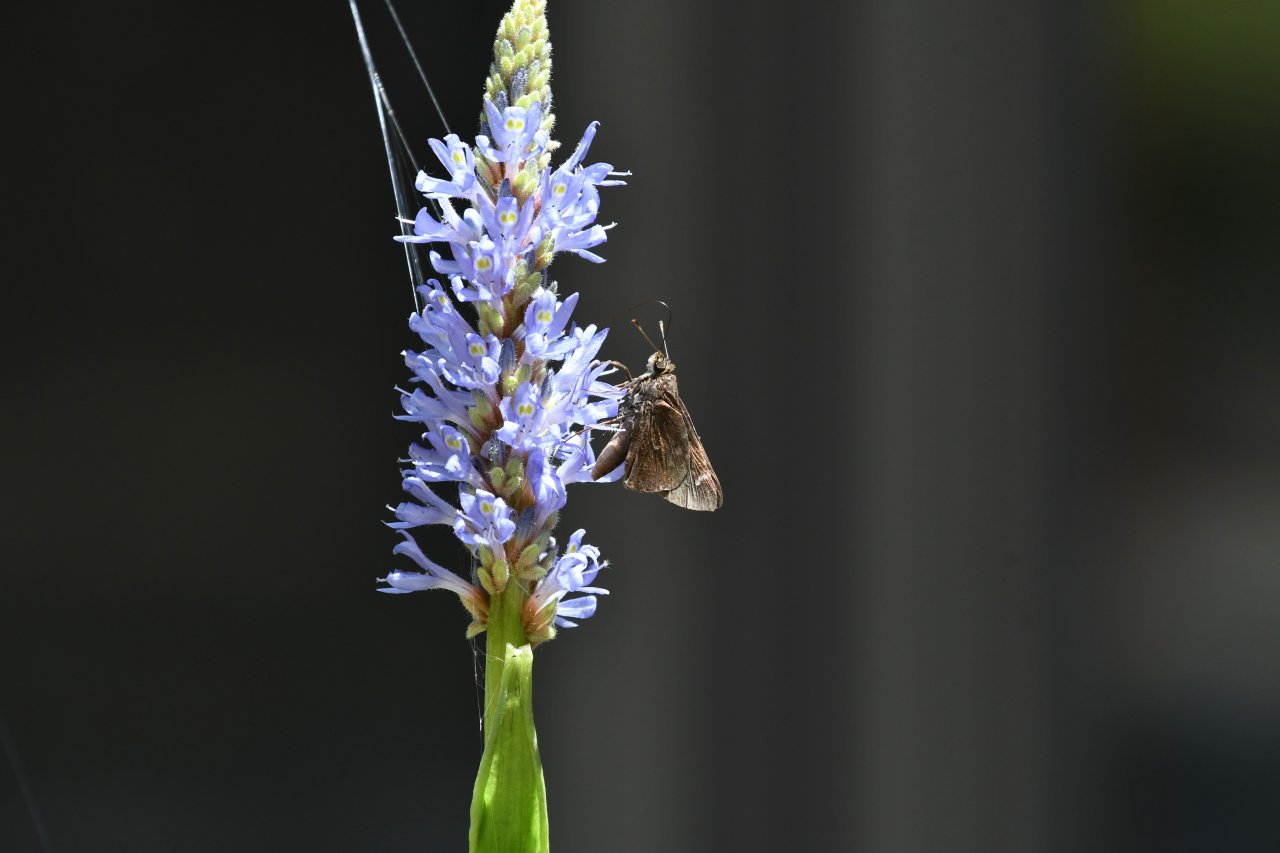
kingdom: Animalia
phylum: Arthropoda
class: Insecta
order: Lepidoptera
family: Hesperiidae
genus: Lerema
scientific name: Lerema accius
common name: Clouded Skipper
